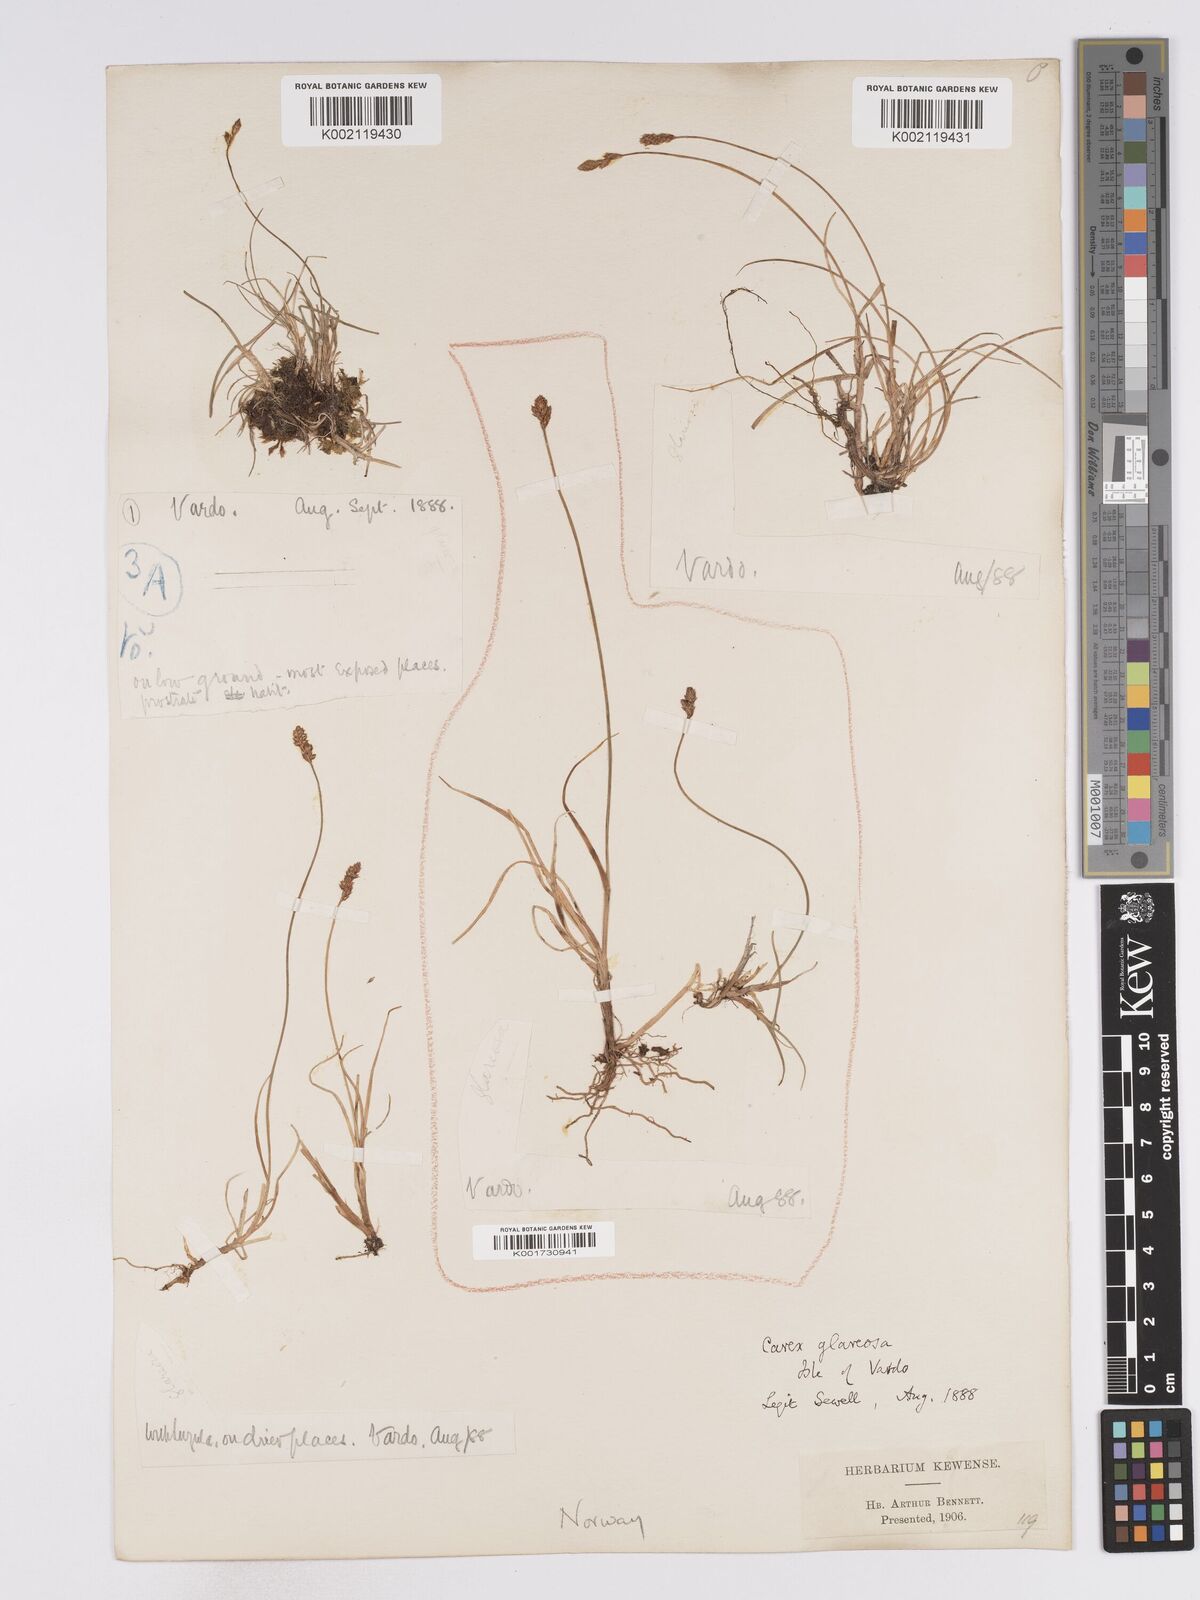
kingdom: Plantae
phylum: Tracheophyta
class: Liliopsida
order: Poales
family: Cyperaceae
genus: Carex
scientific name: Carex glareosa
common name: Clustered sedge
